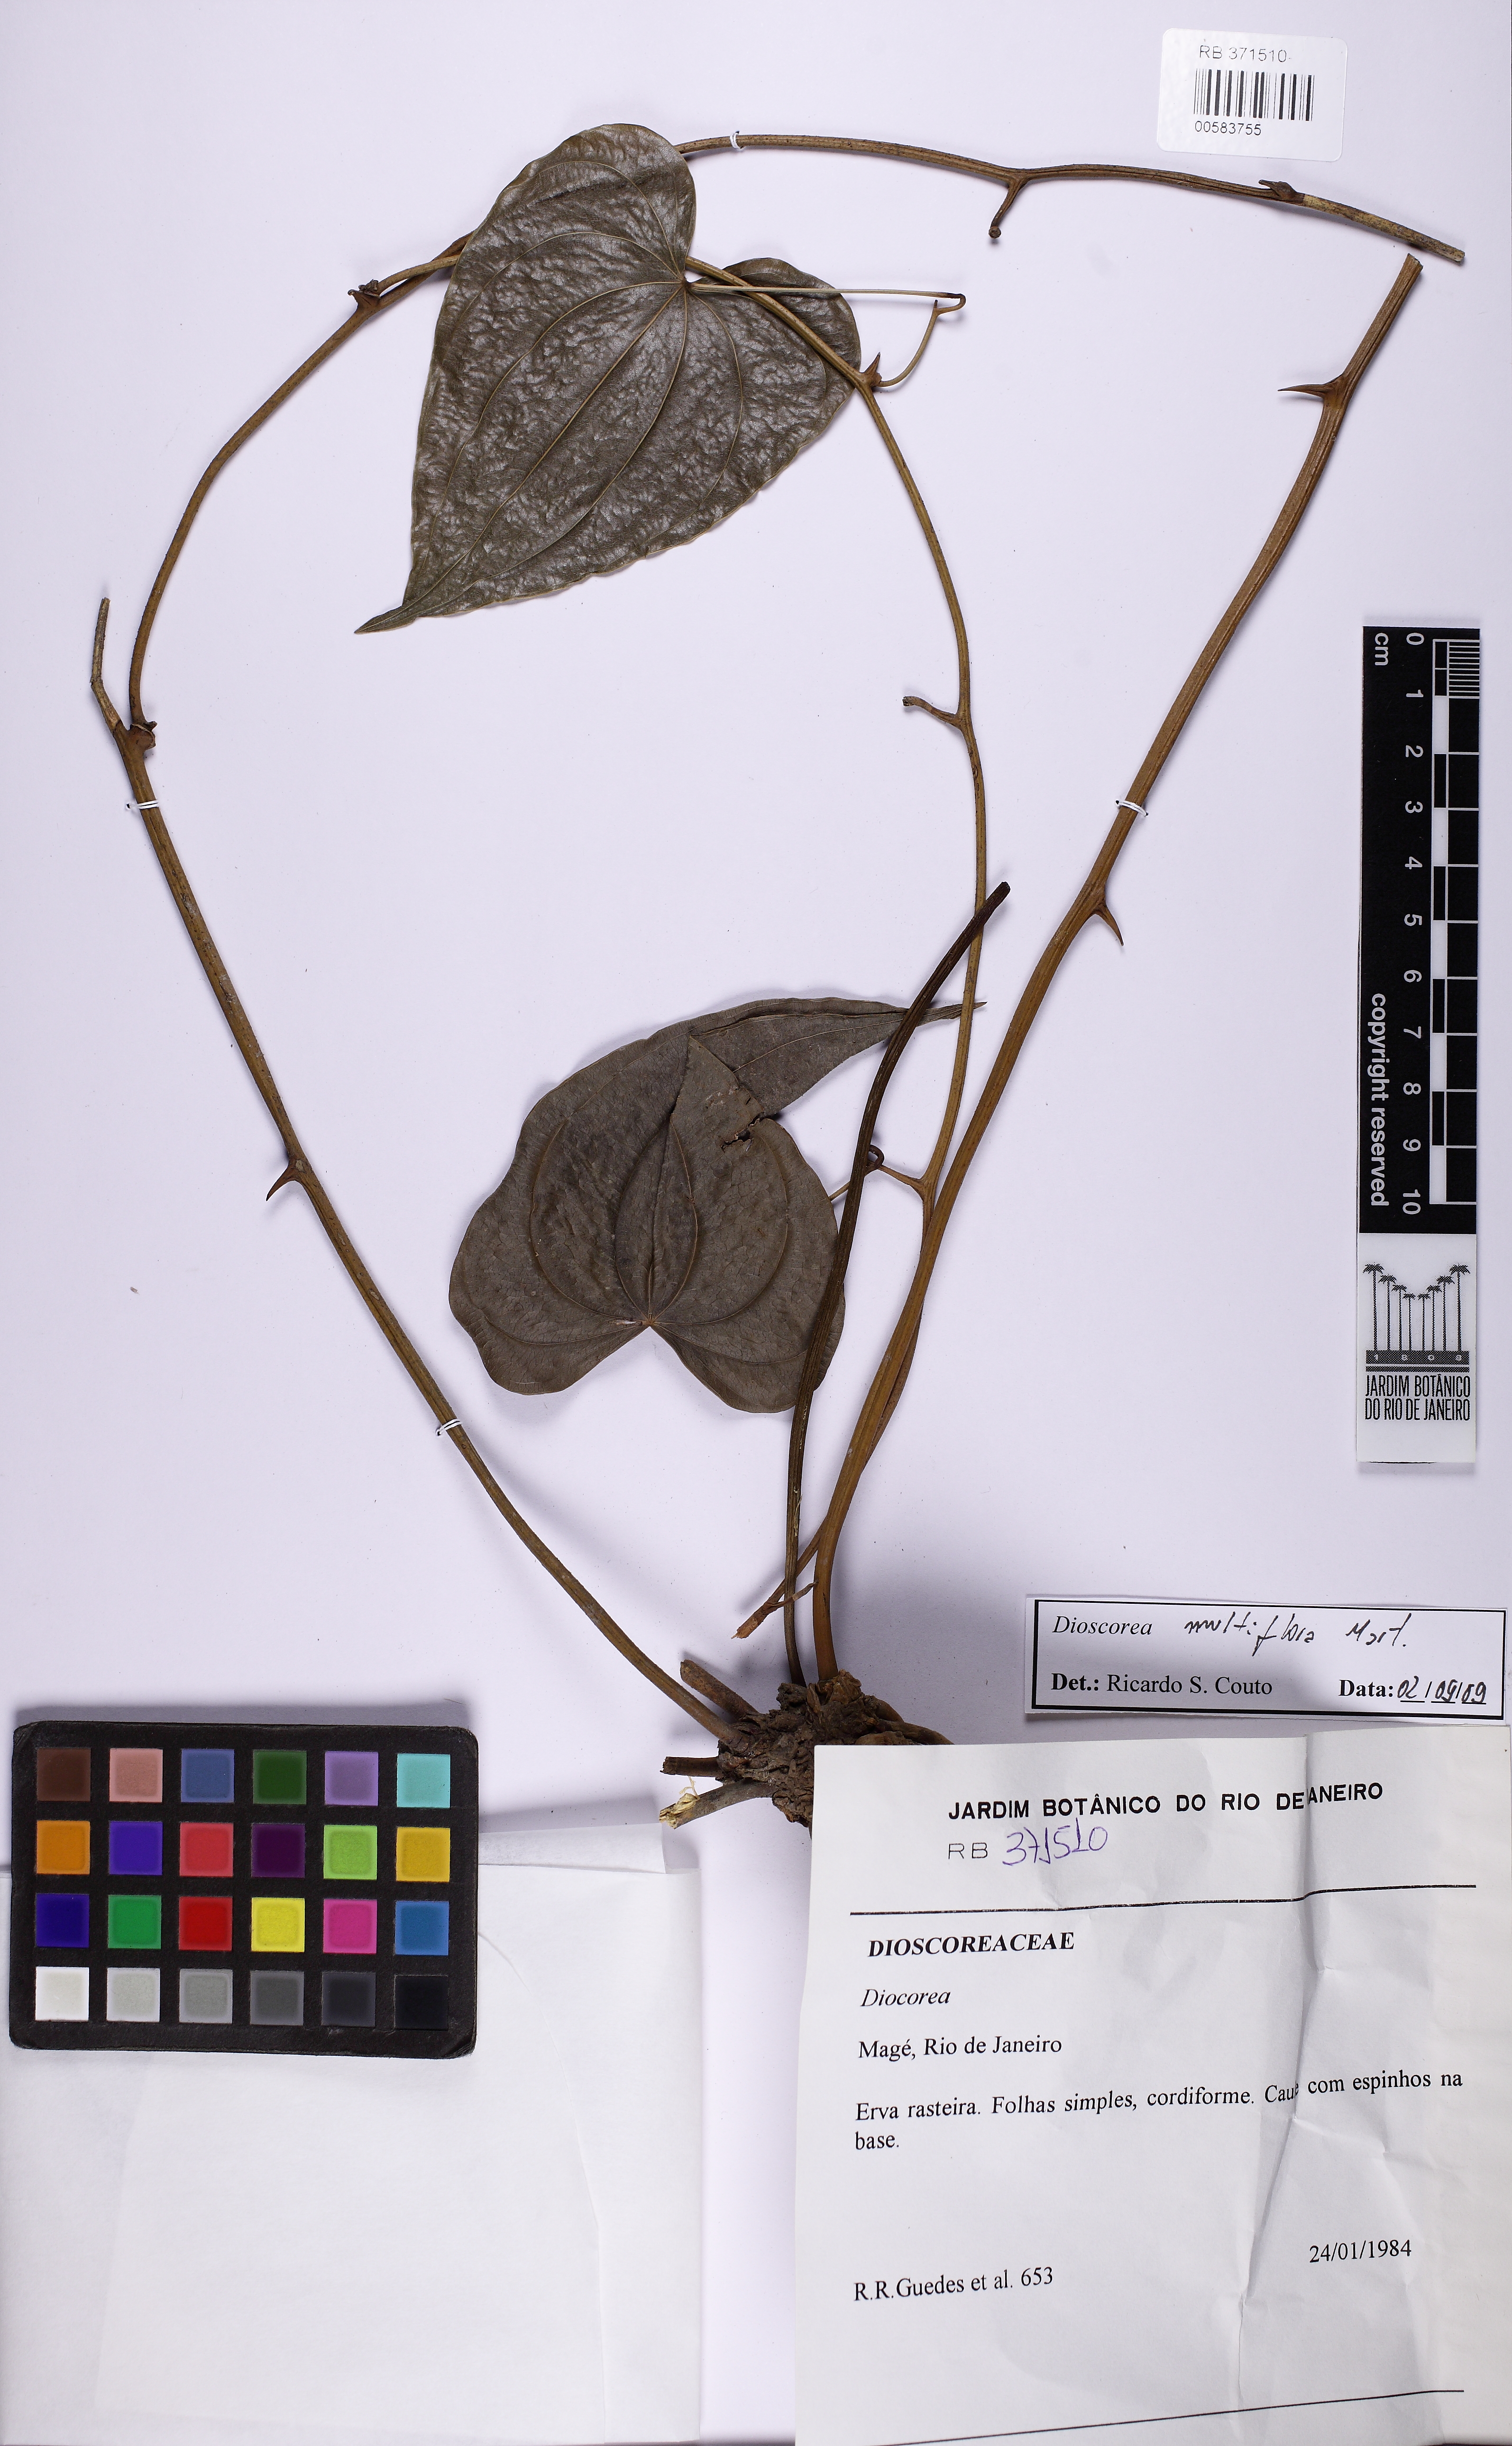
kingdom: Plantae
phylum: Tracheophyta
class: Liliopsida
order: Dioscoreales
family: Dioscoreaceae
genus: Dioscorea
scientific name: Dioscorea multiflora
